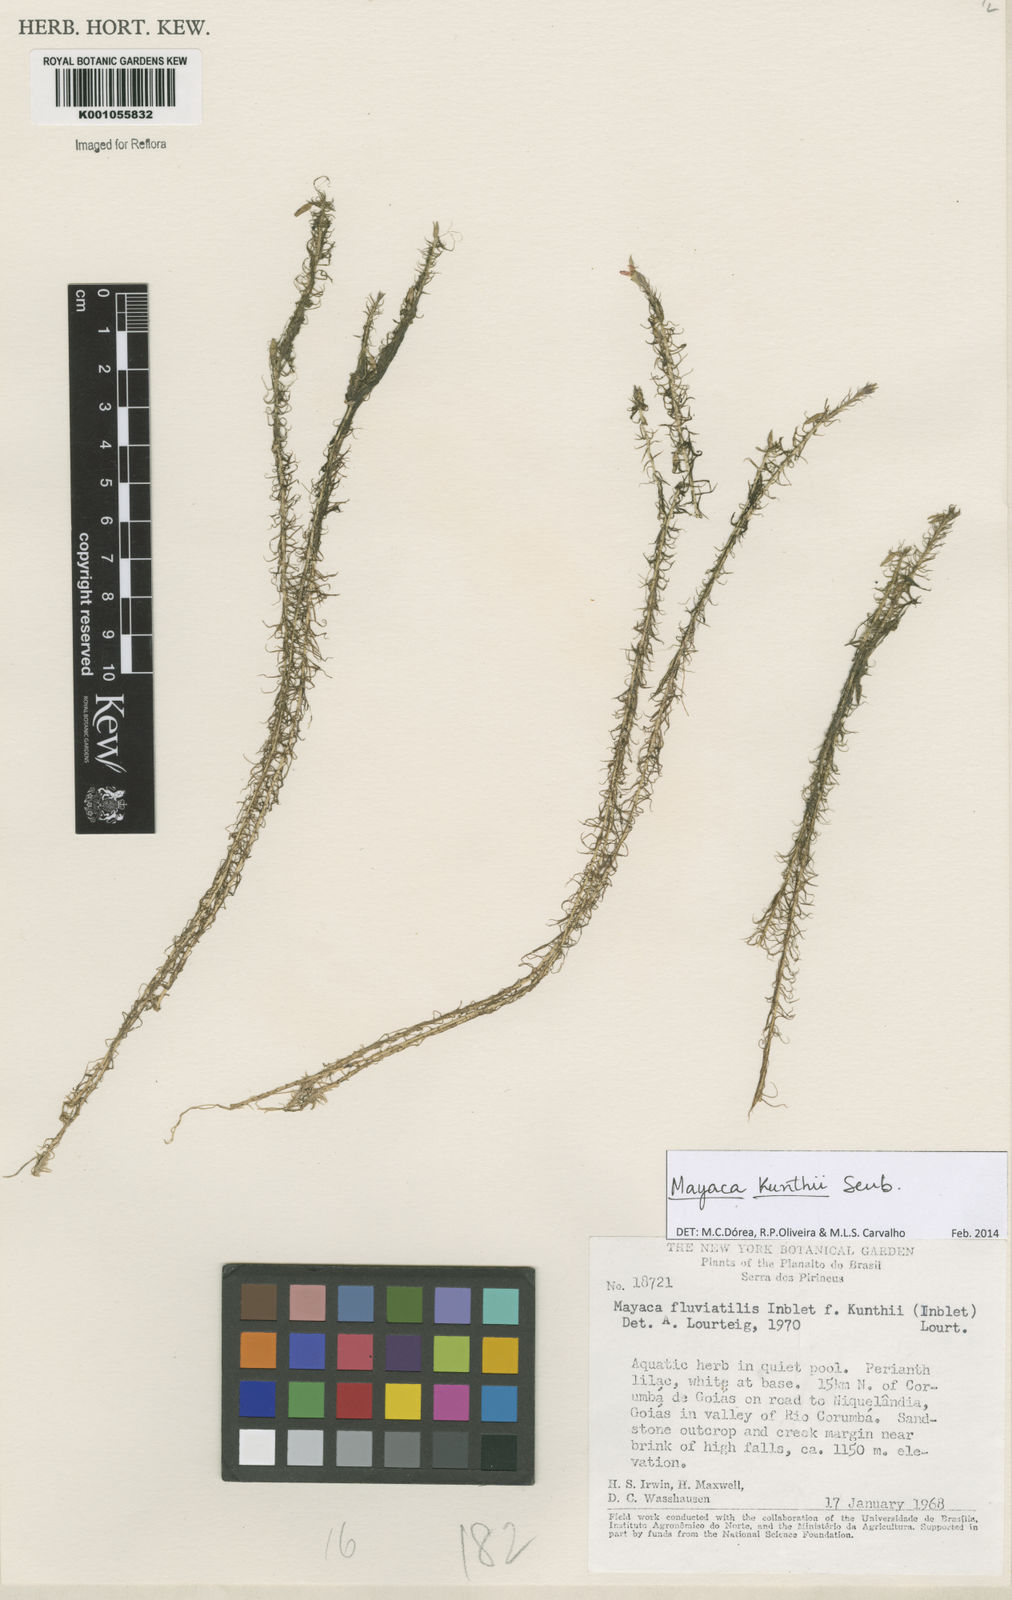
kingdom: Plantae
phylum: Tracheophyta
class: Liliopsida
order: Poales
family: Mayacaceae
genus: Mayaca
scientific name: Mayaca kunthii
